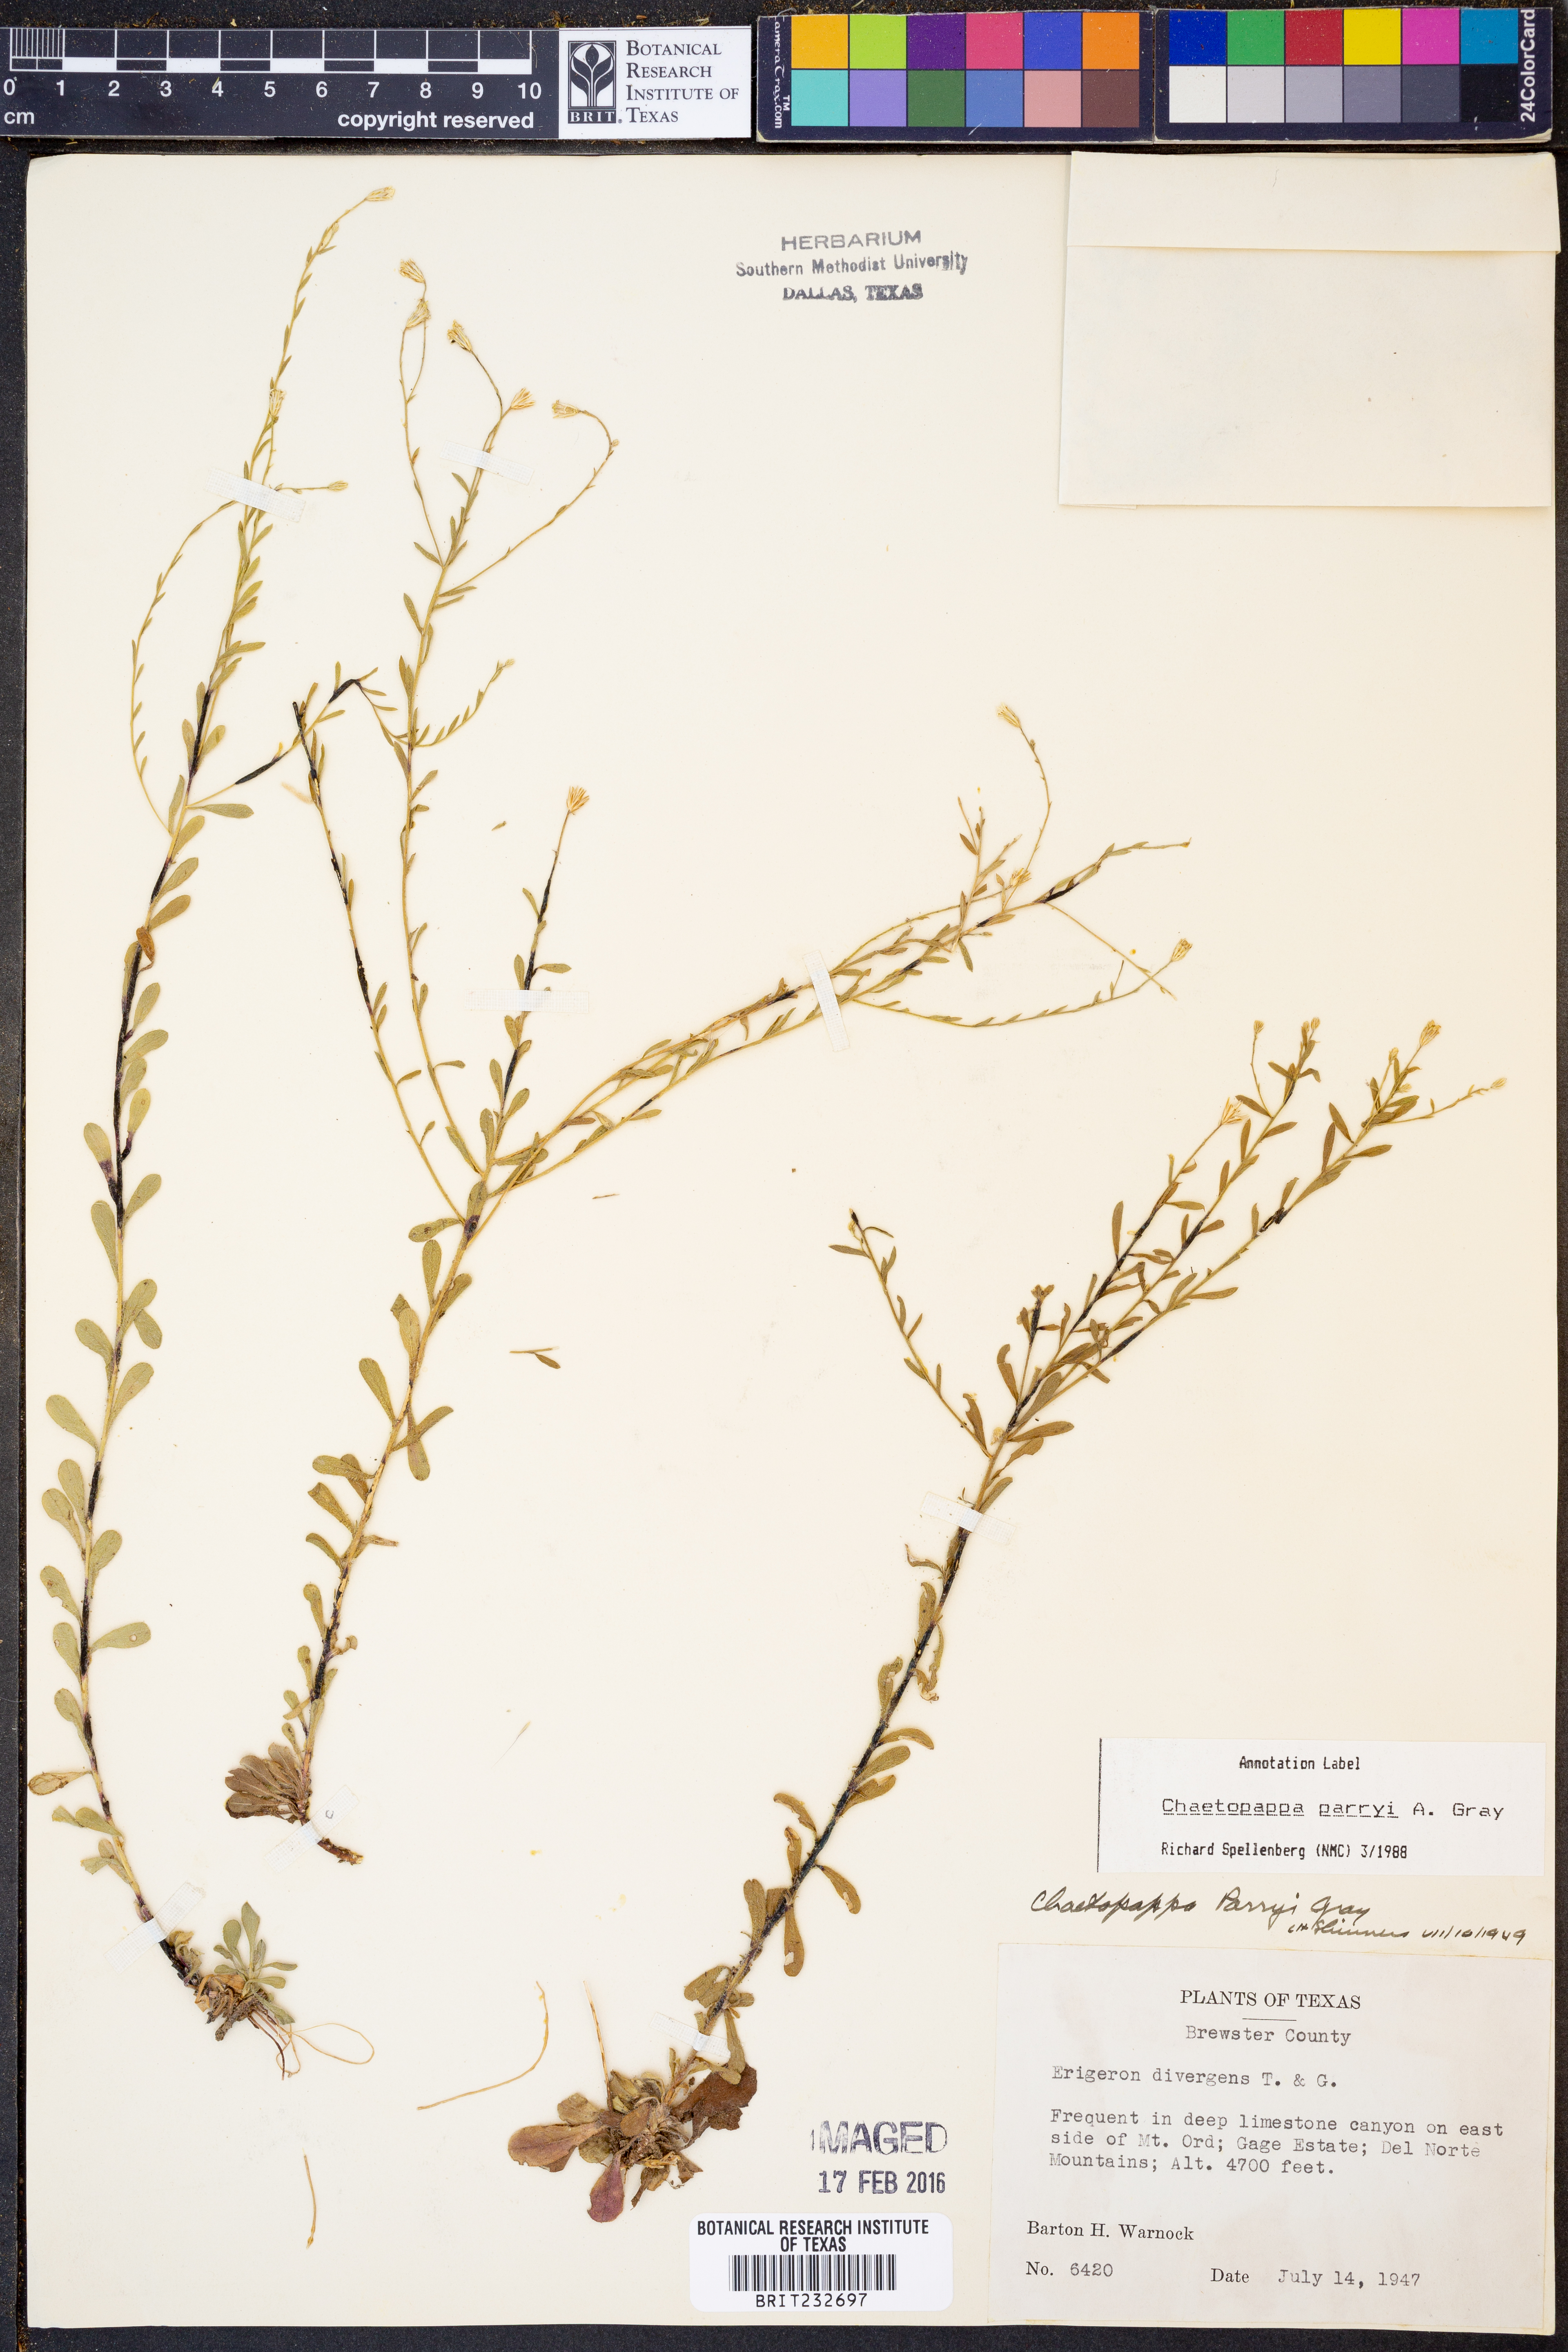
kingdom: Plantae
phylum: Tracheophyta
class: Magnoliopsida
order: Asterales
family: Asteraceae
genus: Chaetopappa
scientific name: Chaetopappa parryi
